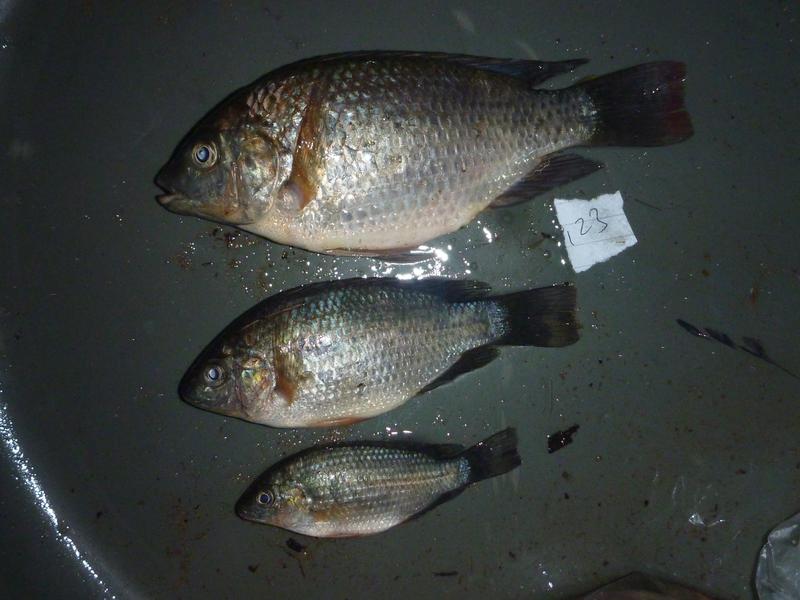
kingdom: Animalia
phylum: Chordata
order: Perciformes
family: Cichlidae
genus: Oreochromis
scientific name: Oreochromis shiranus
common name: Chilwa tilapia
